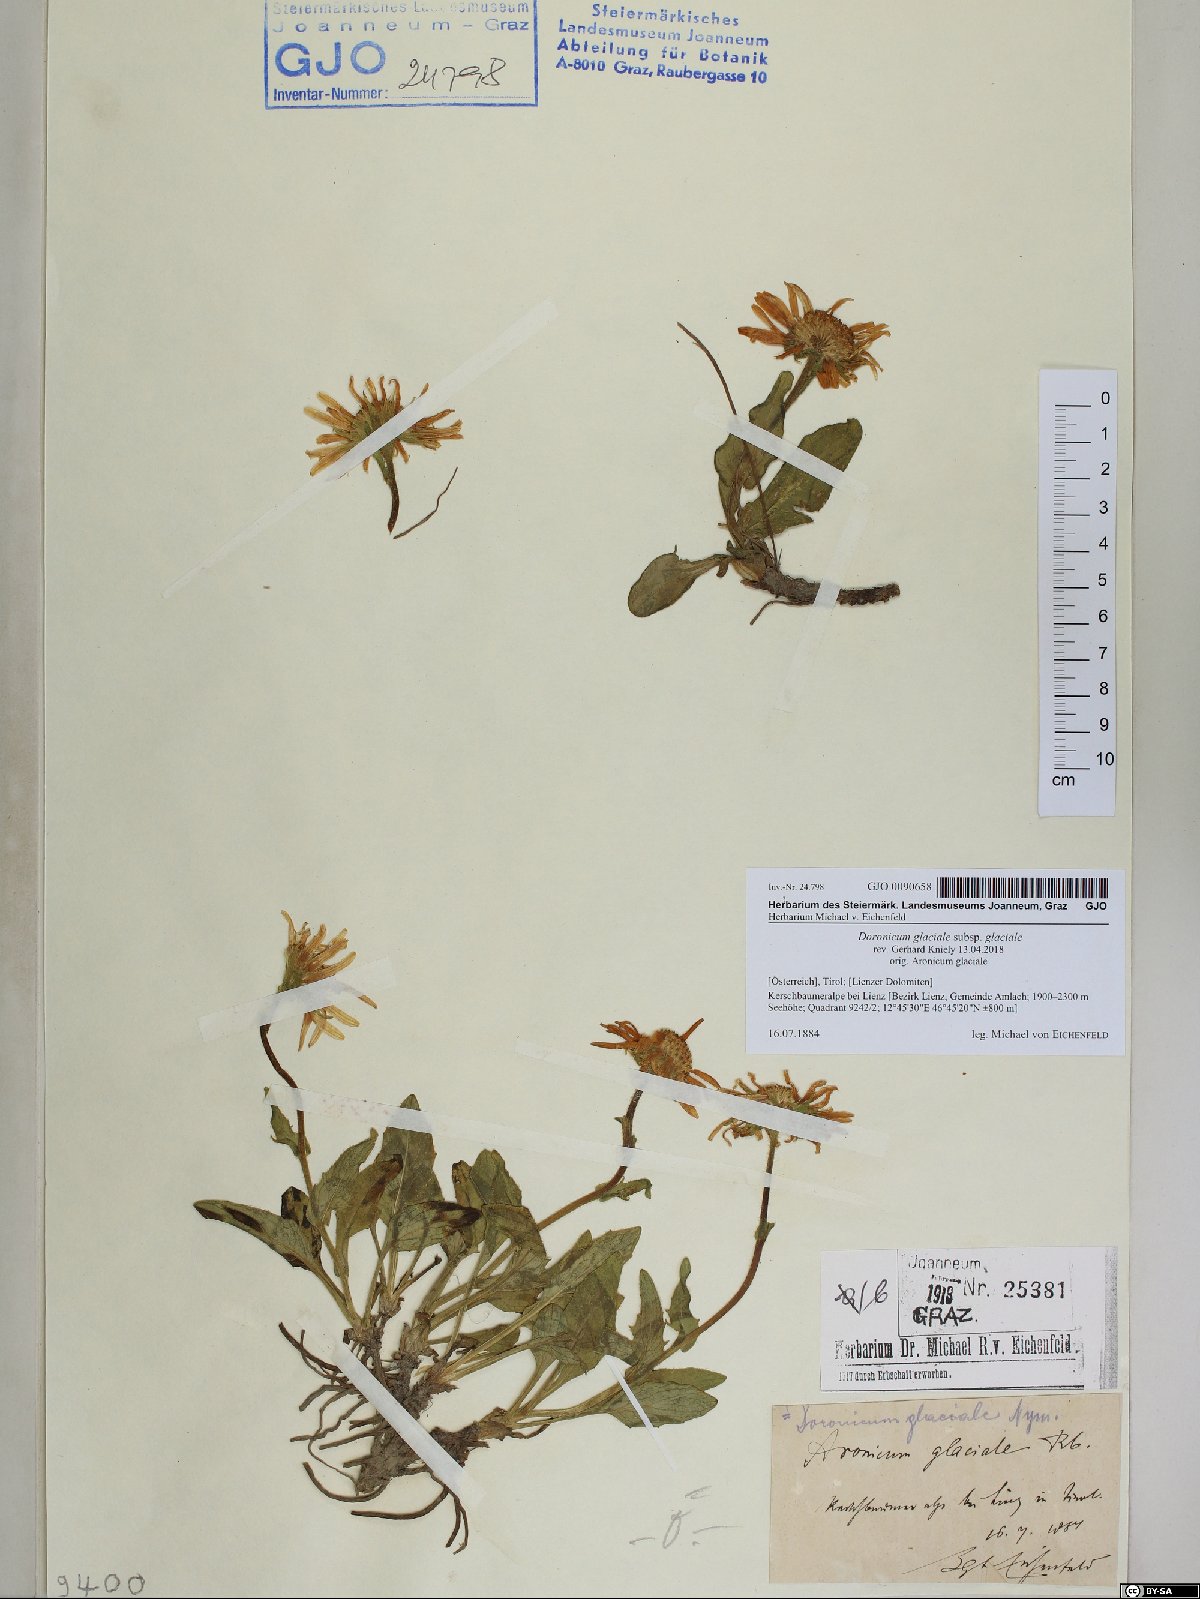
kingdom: Plantae
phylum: Tracheophyta
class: Magnoliopsida
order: Asterales
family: Asteraceae
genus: Doronicum
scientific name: Doronicum glaciale
